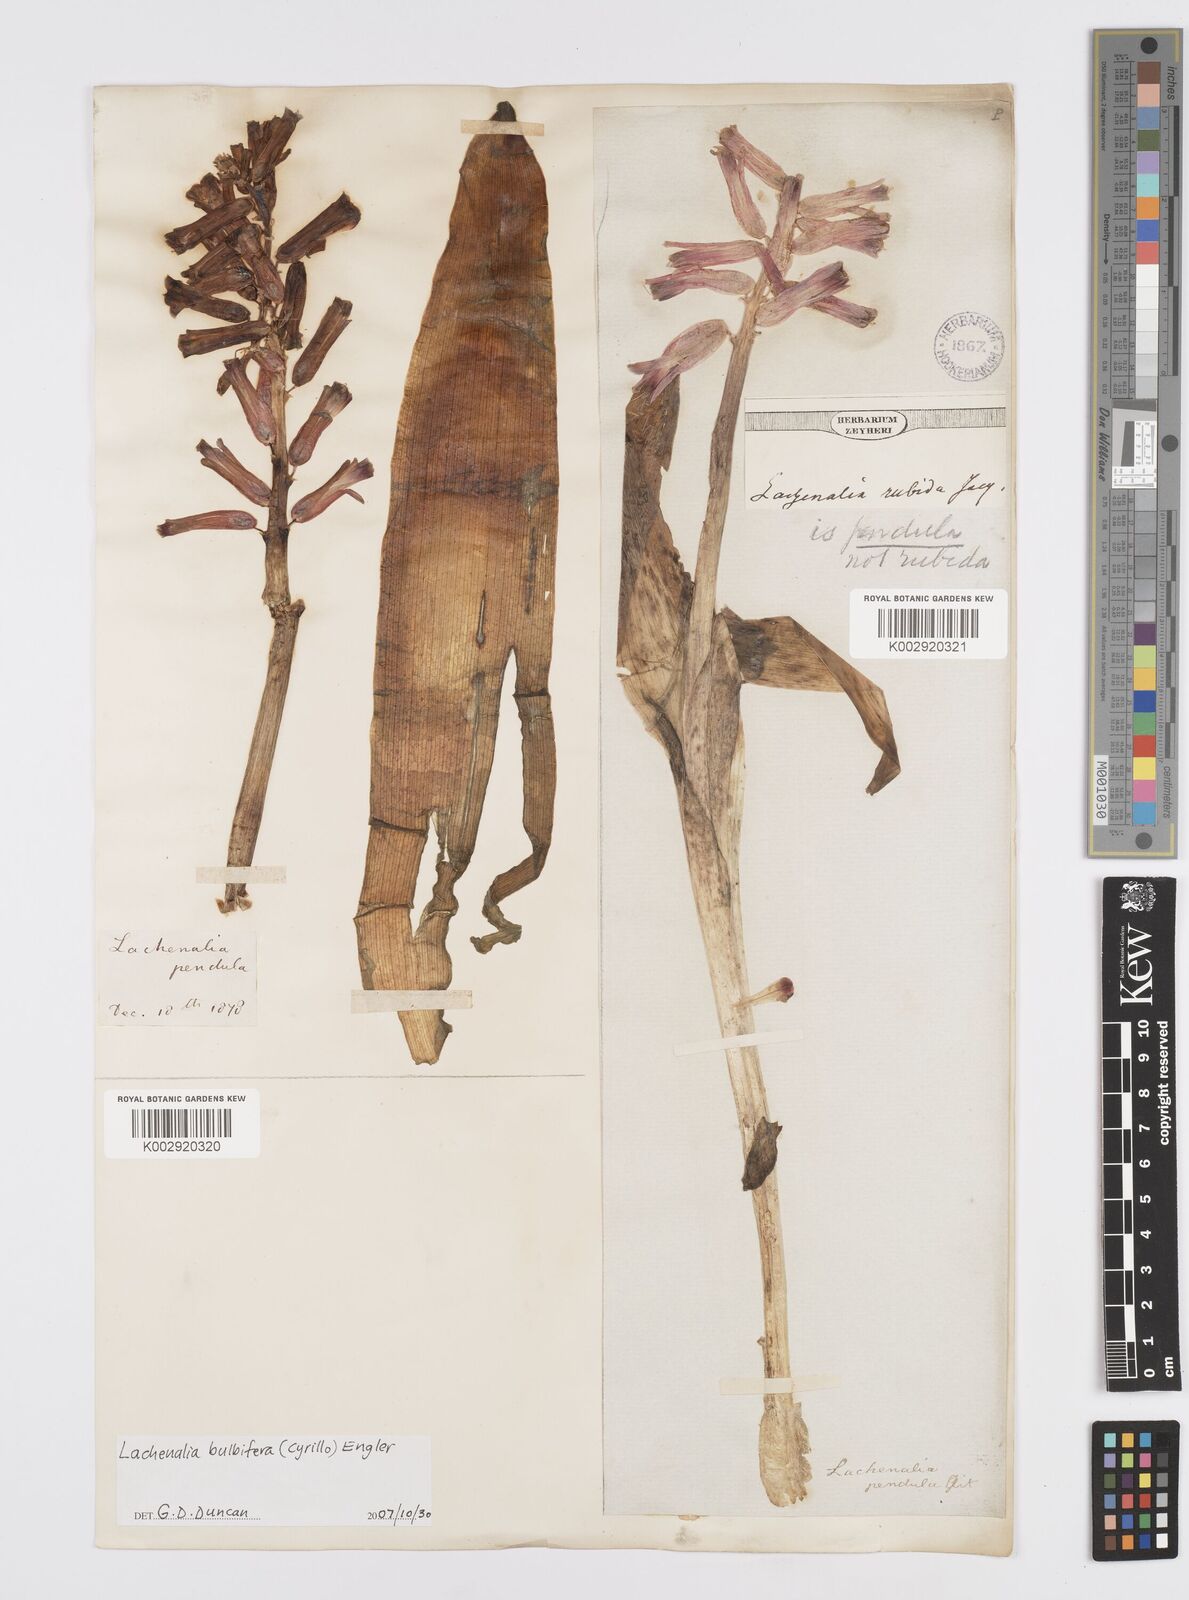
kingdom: Plantae
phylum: Tracheophyta
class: Liliopsida
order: Asparagales
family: Asparagaceae
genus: Lachenalia
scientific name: Lachenalia bulbifera
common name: Red lachenalia
